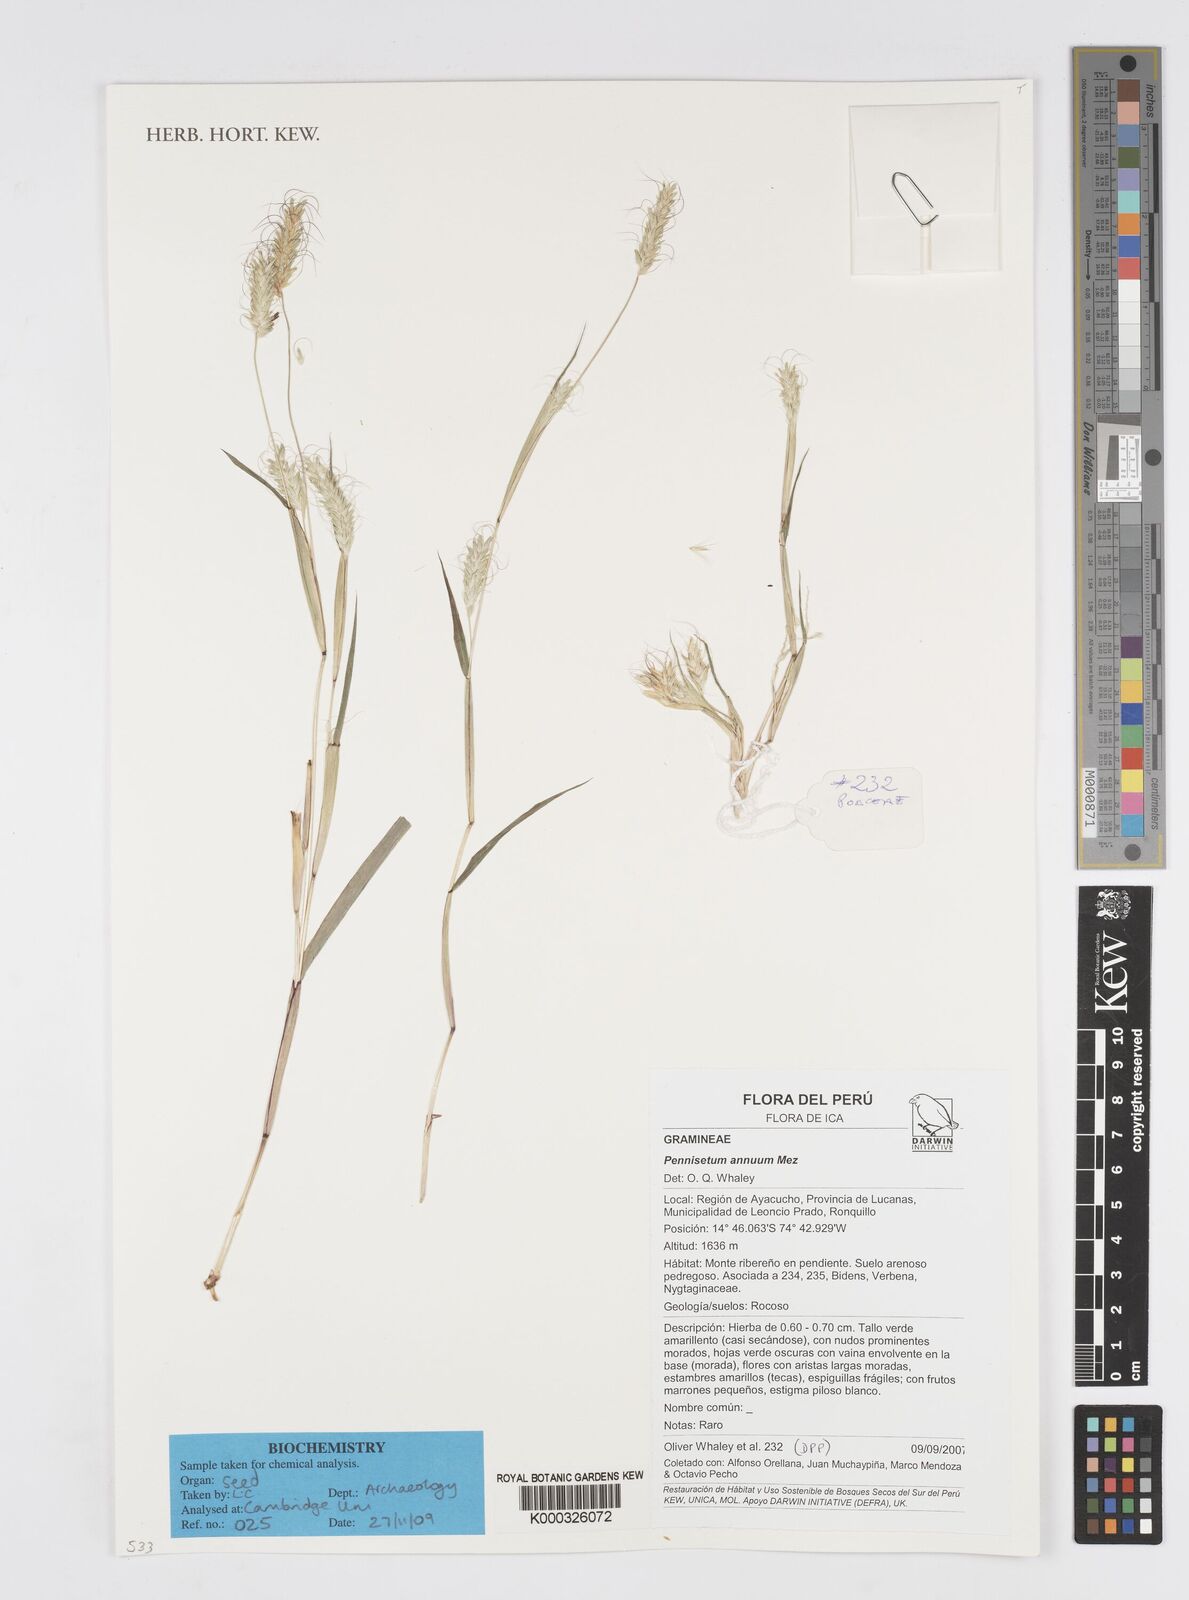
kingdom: Plantae
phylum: Tracheophyta
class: Liliopsida
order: Poales
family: Poaceae
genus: Cenchrus
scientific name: Cenchrus annuus
